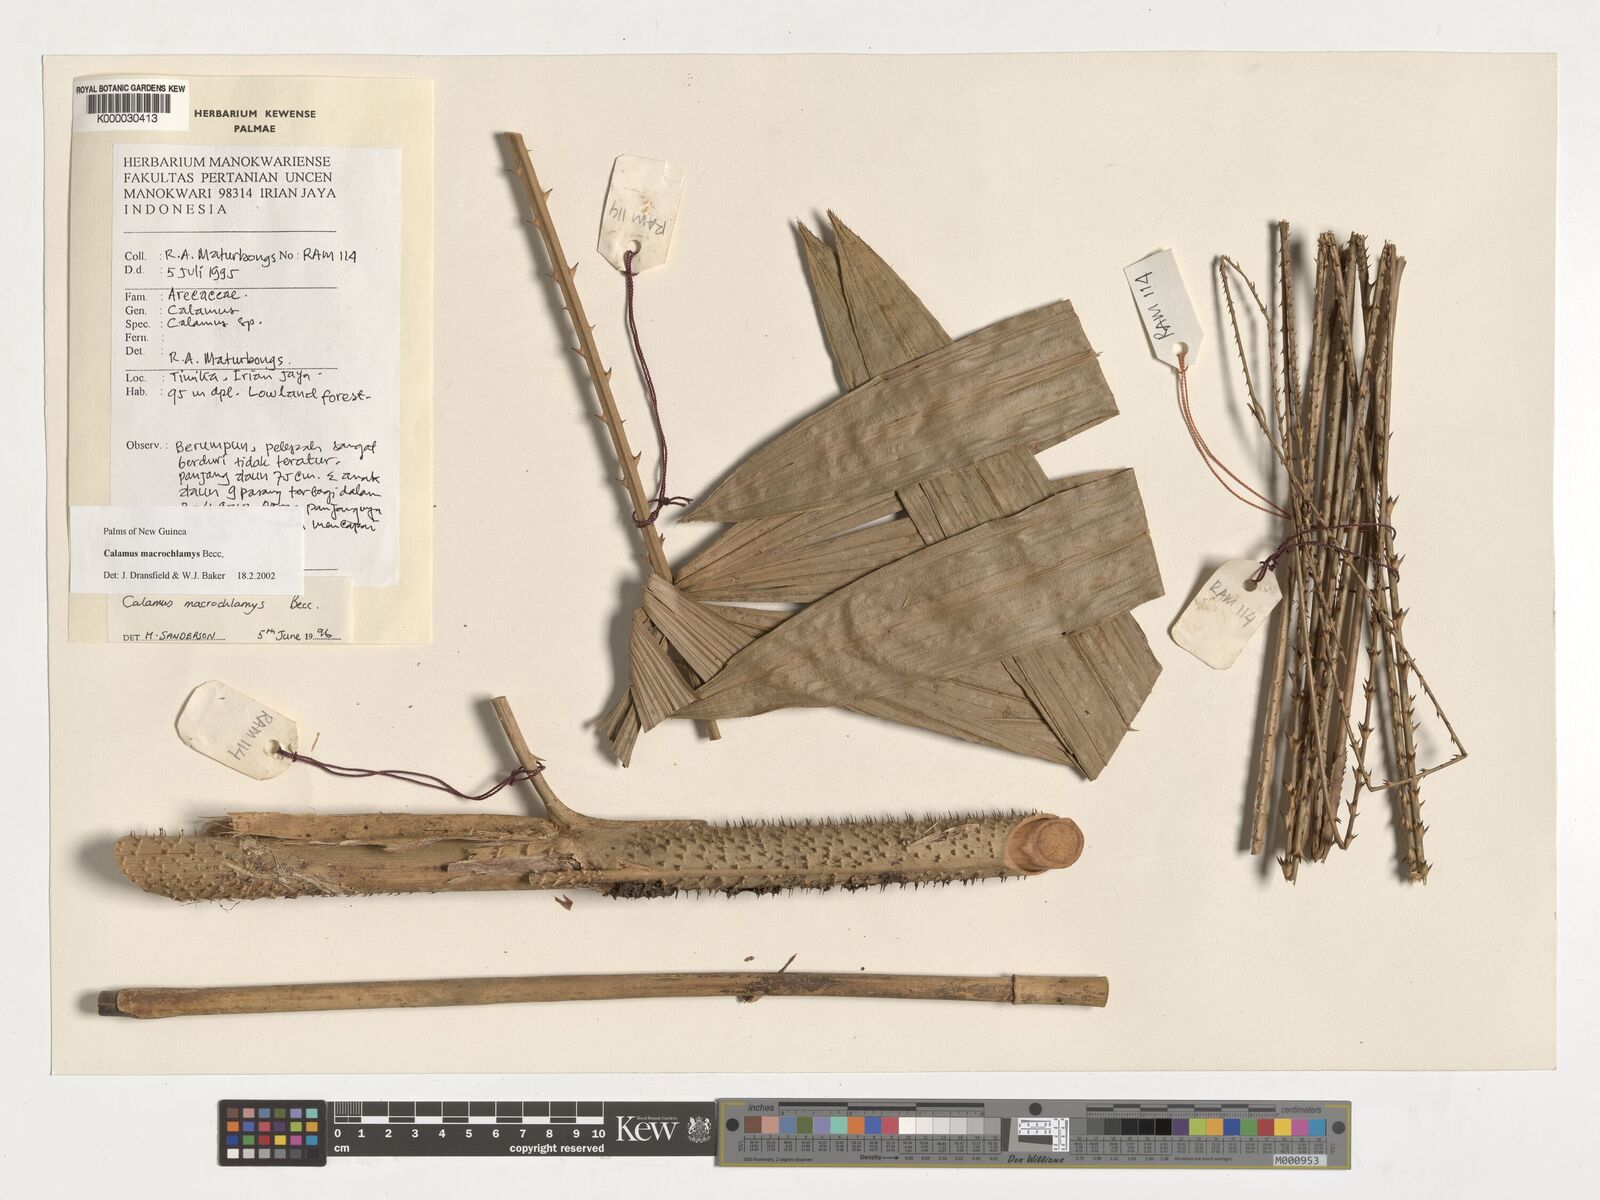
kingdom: Plantae
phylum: Tracheophyta
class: Liliopsida
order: Arecales
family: Arecaceae
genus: Calamus
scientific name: Calamus macrochlamys
